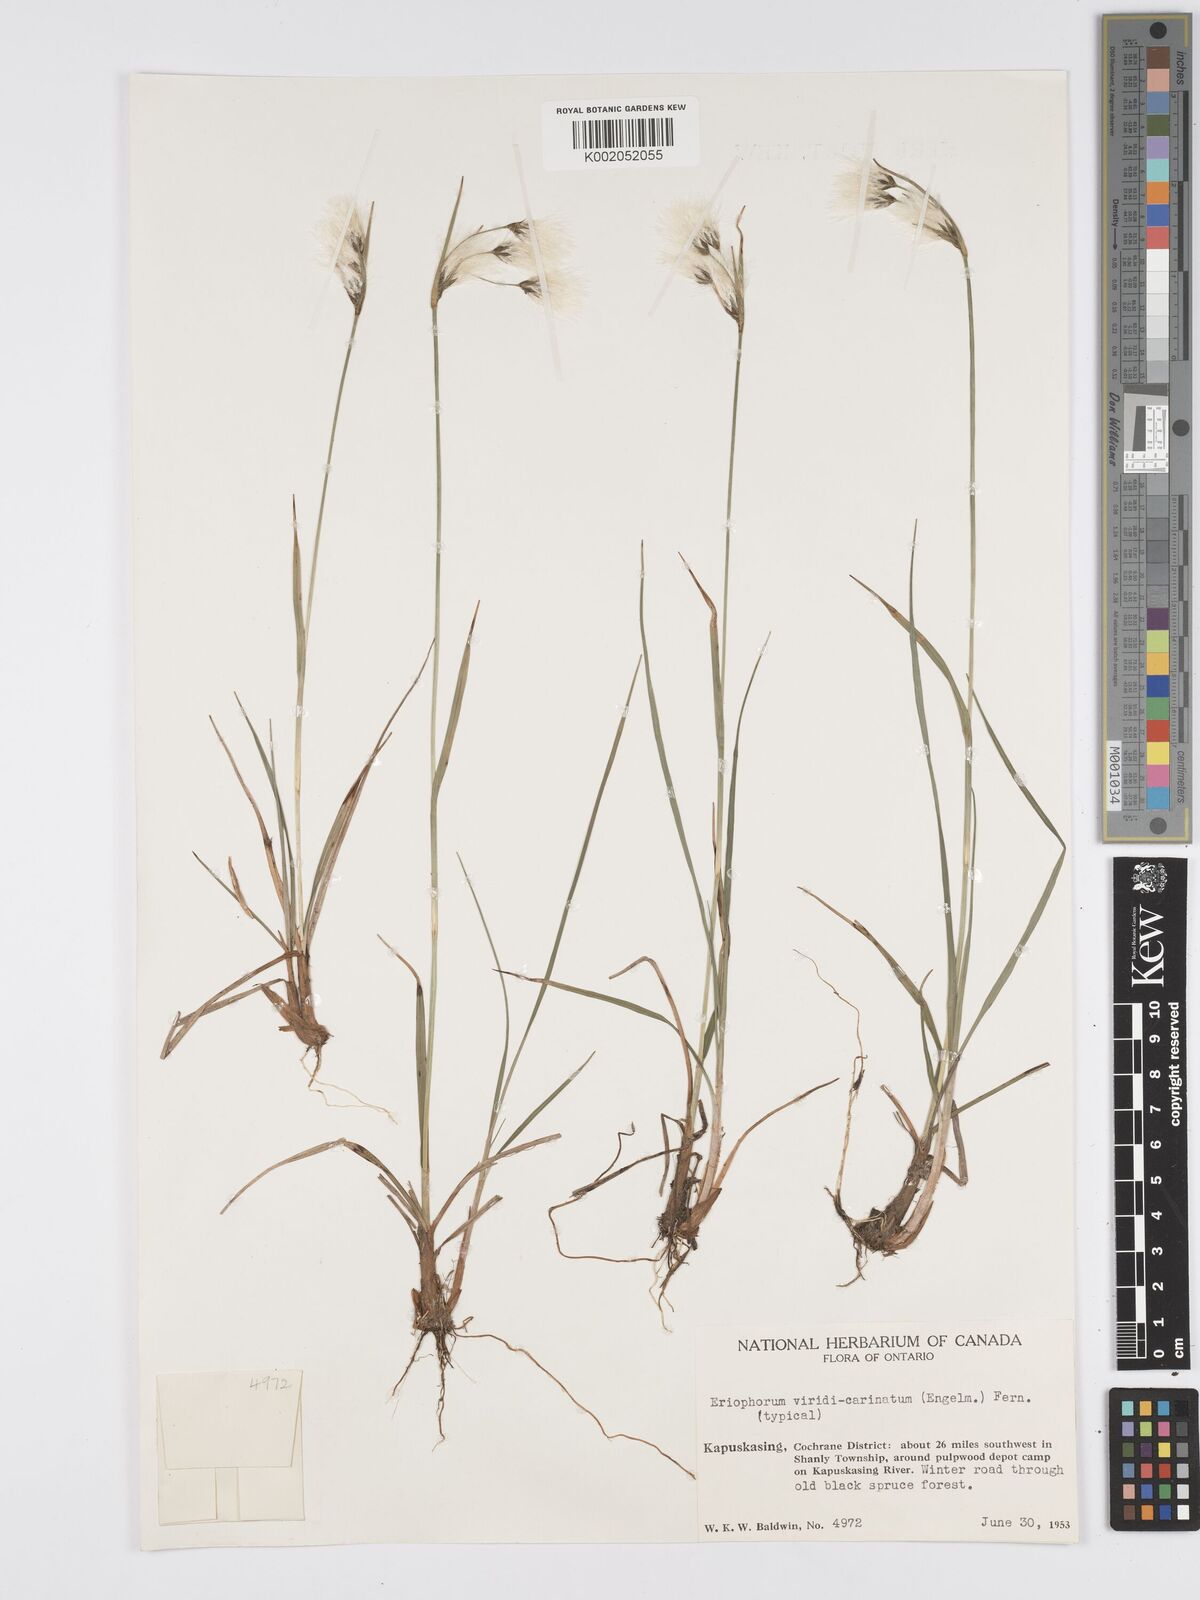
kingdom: Plantae
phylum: Tracheophyta
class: Liliopsida
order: Poales
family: Cyperaceae
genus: Eriophorum
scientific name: Eriophorum viridicarinatum
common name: Green-keeled cottongrass
